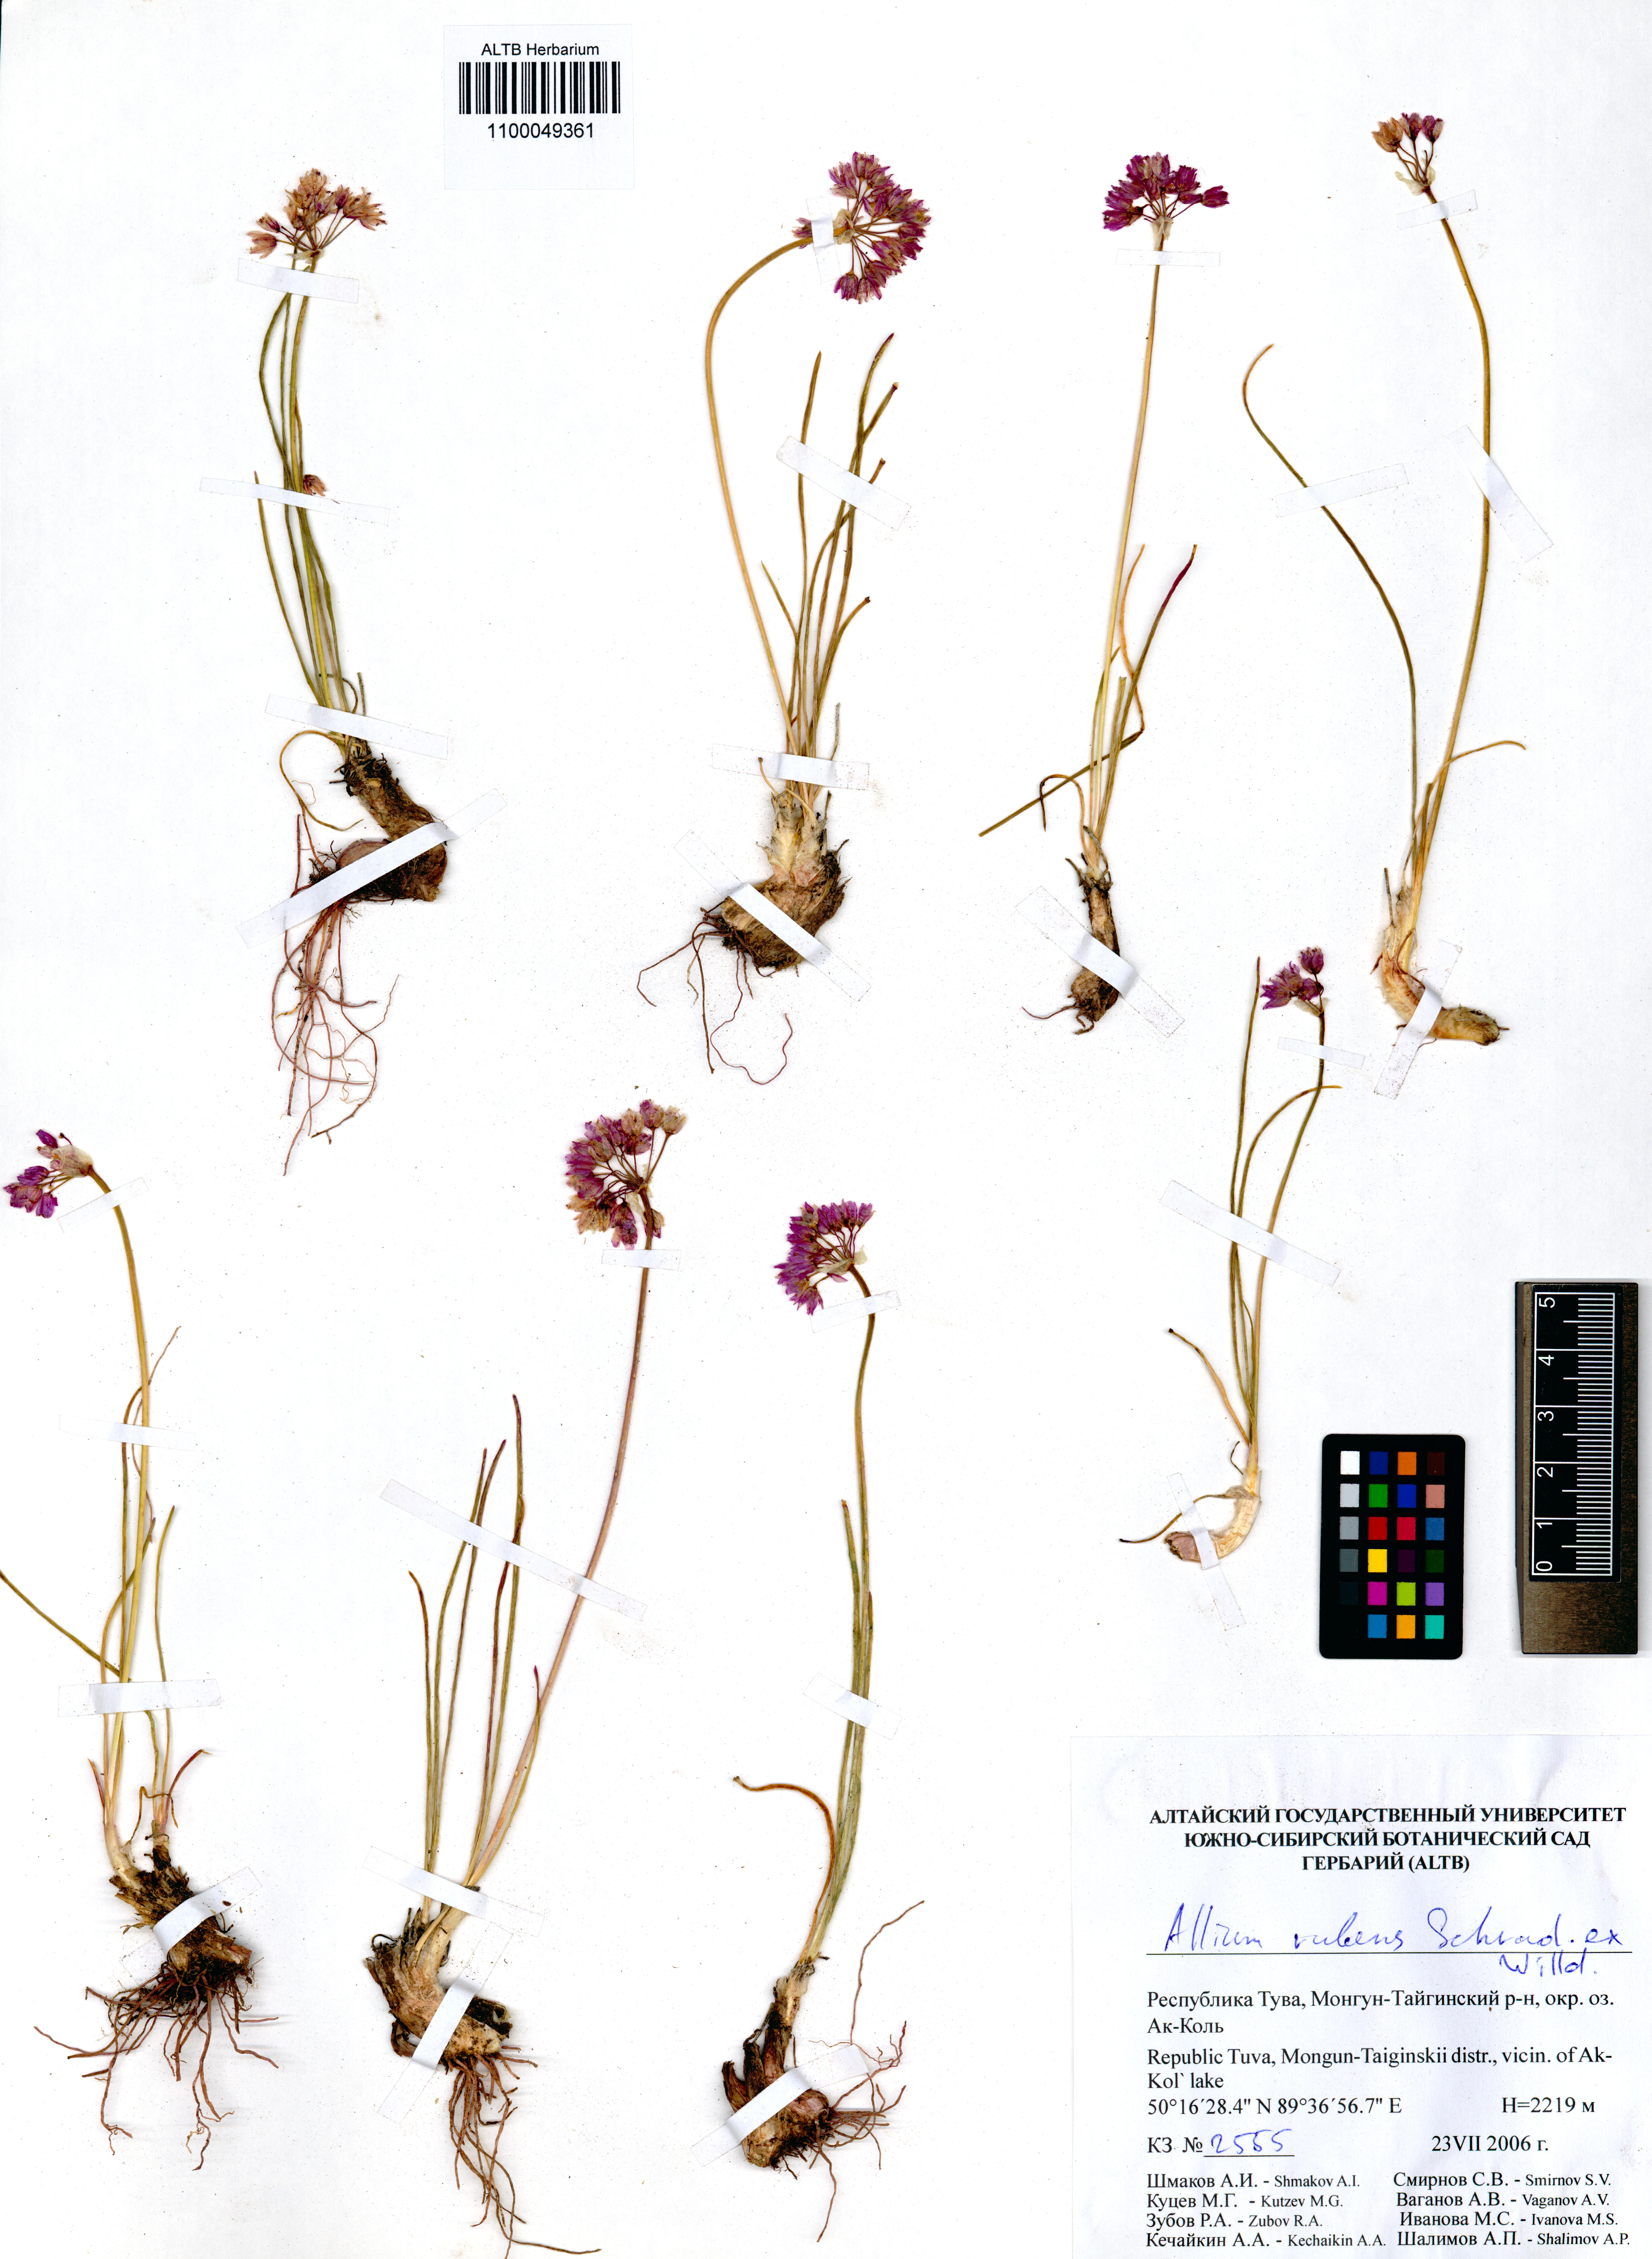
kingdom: Plantae
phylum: Tracheophyta
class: Liliopsida
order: Asparagales
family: Amaryllidaceae
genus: Allium
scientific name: Allium rubens
